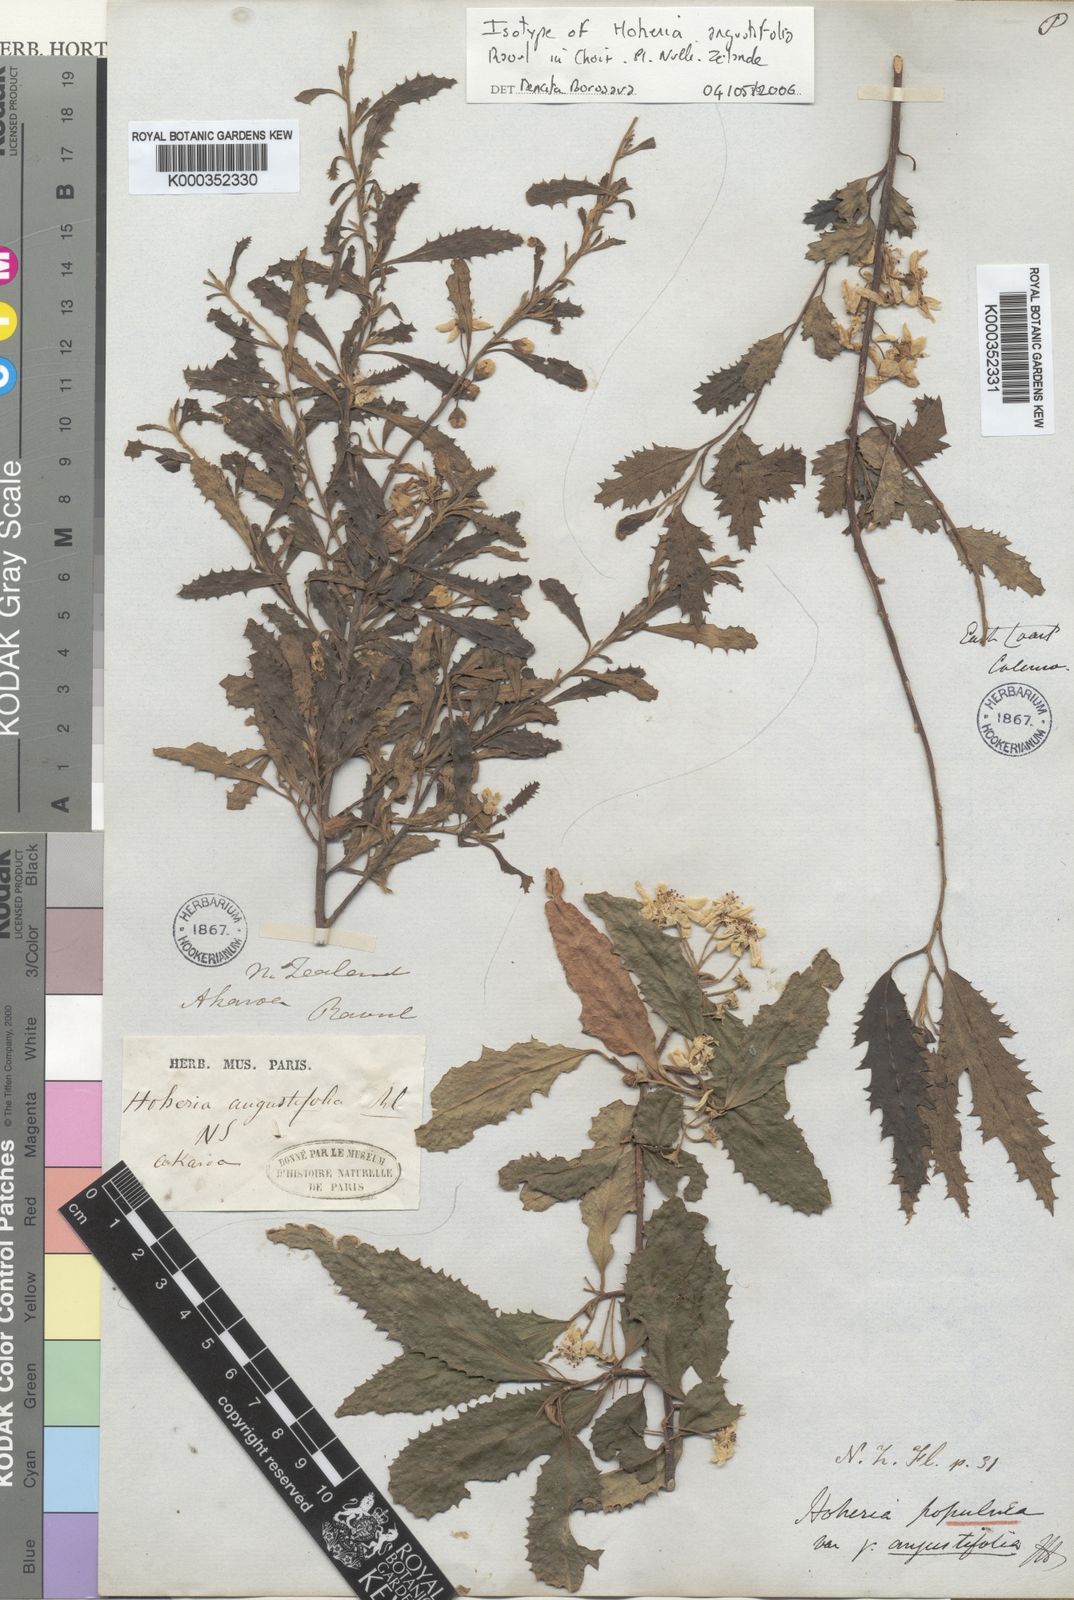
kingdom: Plantae
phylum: Tracheophyta
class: Magnoliopsida
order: Malvales
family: Malvaceae
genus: Hoheria
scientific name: Hoheria angustifolia
